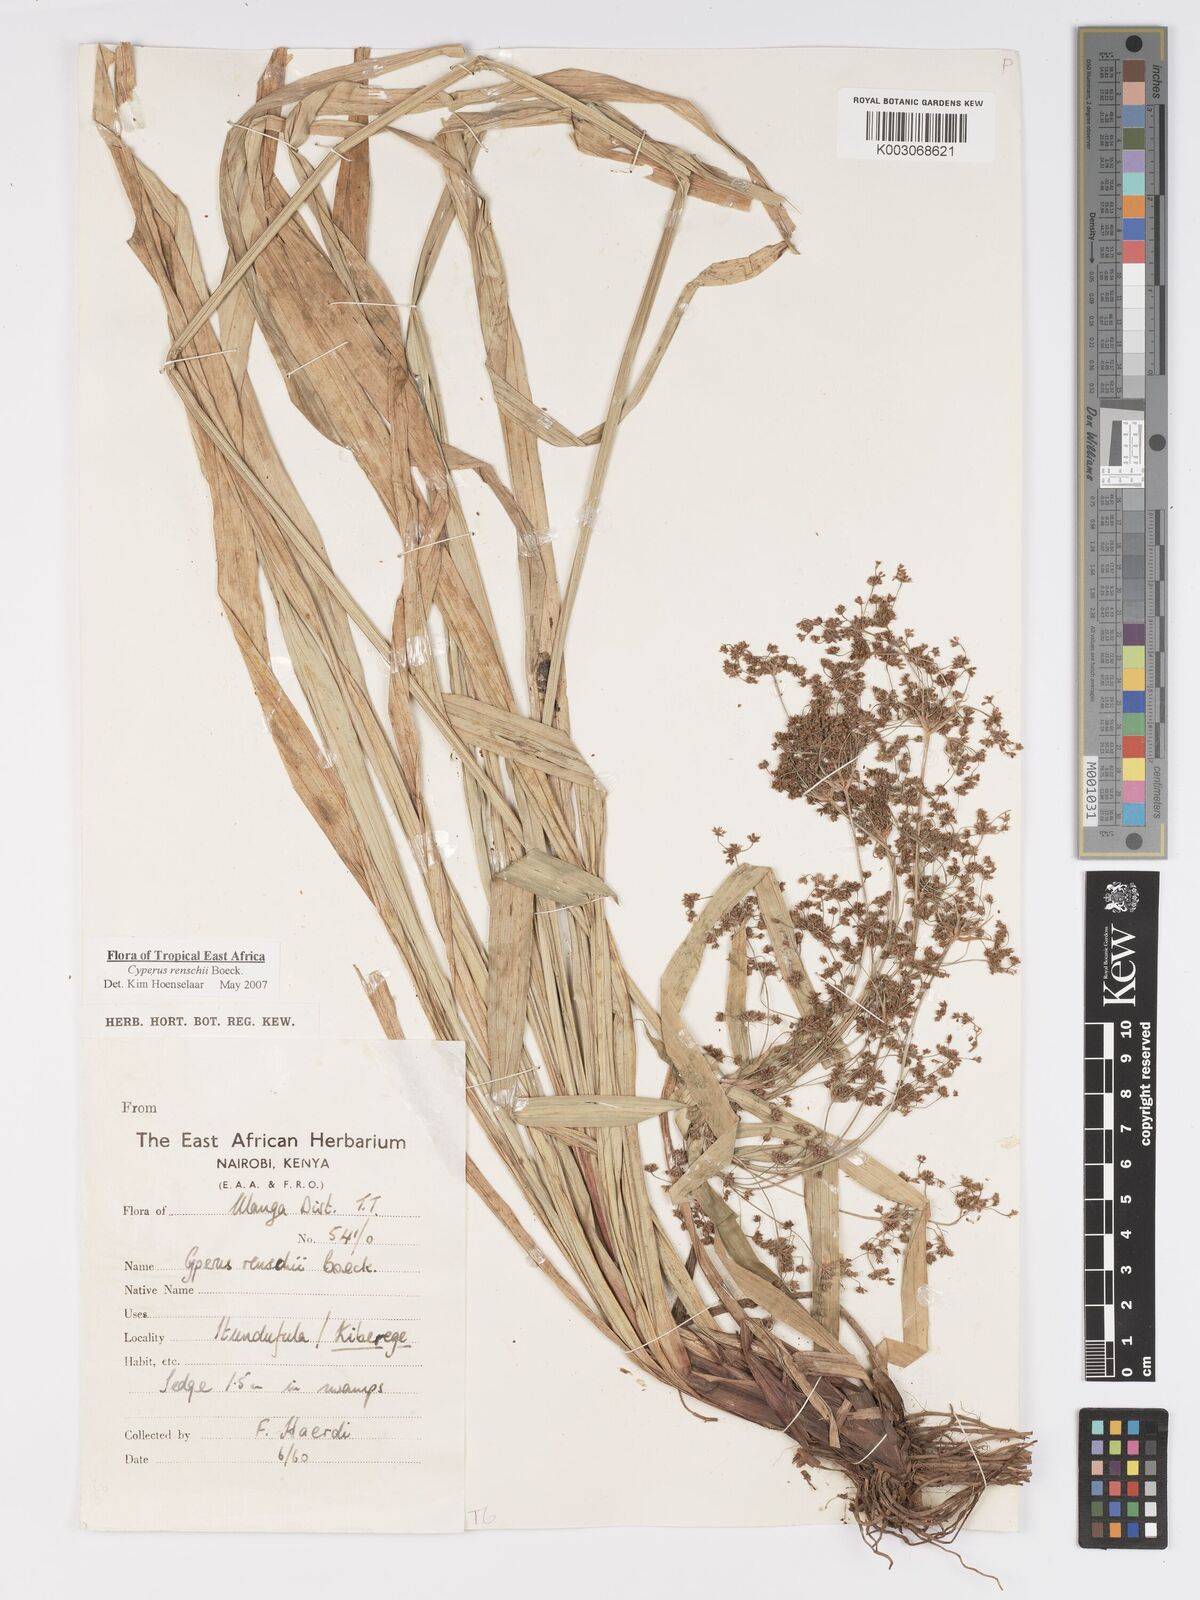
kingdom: Plantae
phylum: Tracheophyta
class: Liliopsida
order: Poales
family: Cyperaceae
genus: Cyperus
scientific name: Cyperus renschii
